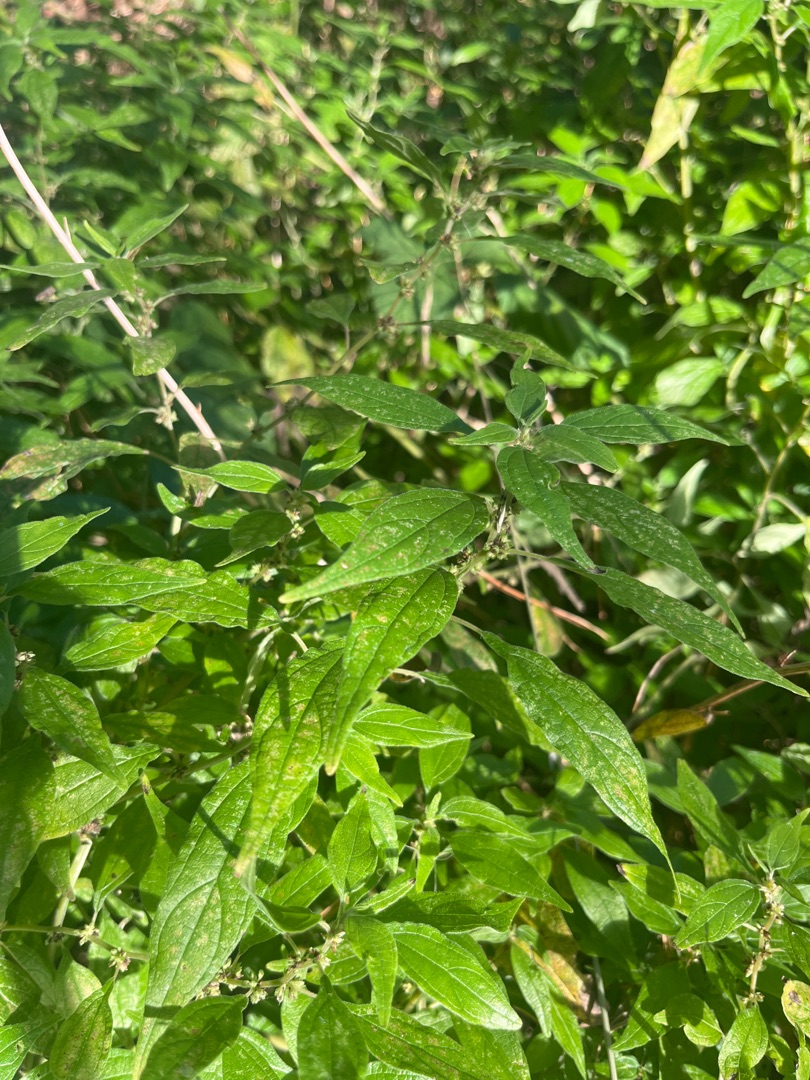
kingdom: Plantae
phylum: Tracheophyta
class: Magnoliopsida
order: Rosales
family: Urticaceae
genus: Parietaria
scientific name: Parietaria officinalis
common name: Almindelig springknap
